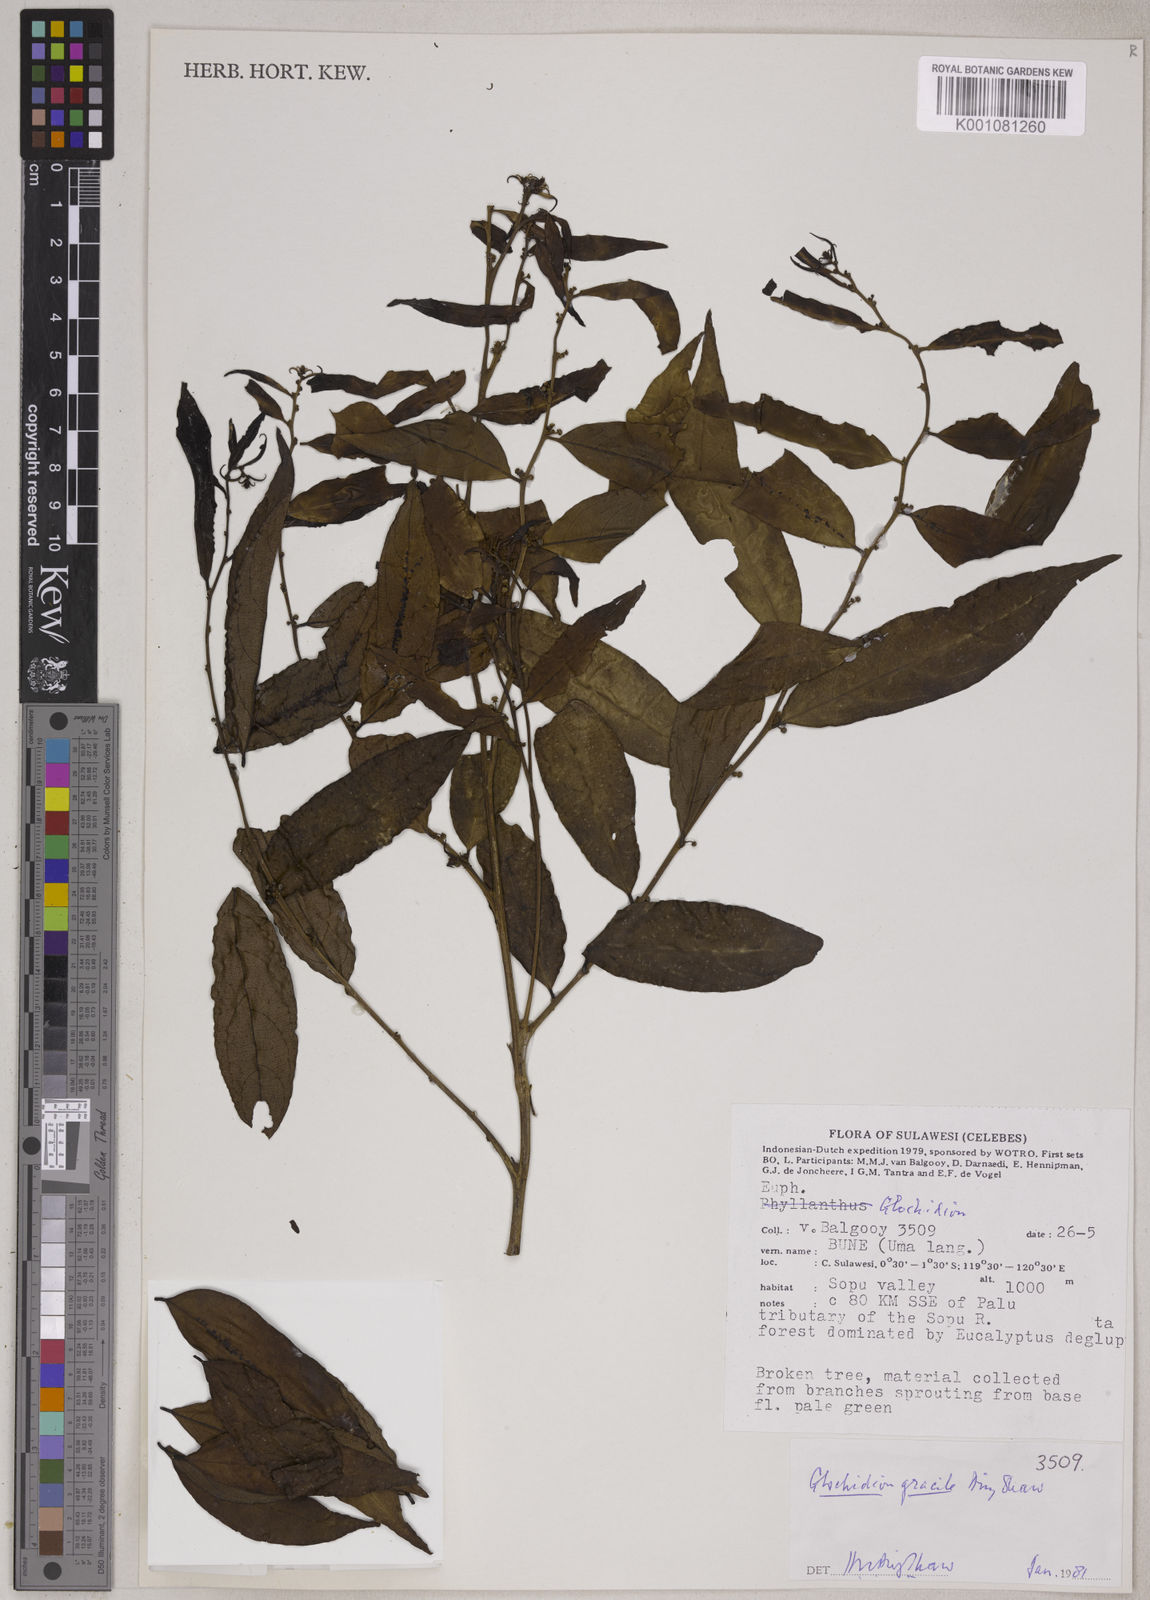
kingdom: Plantae
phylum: Tracheophyta
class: Magnoliopsida
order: Malpighiales
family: Phyllanthaceae
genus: Glochidion
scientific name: Glochidion gracile
